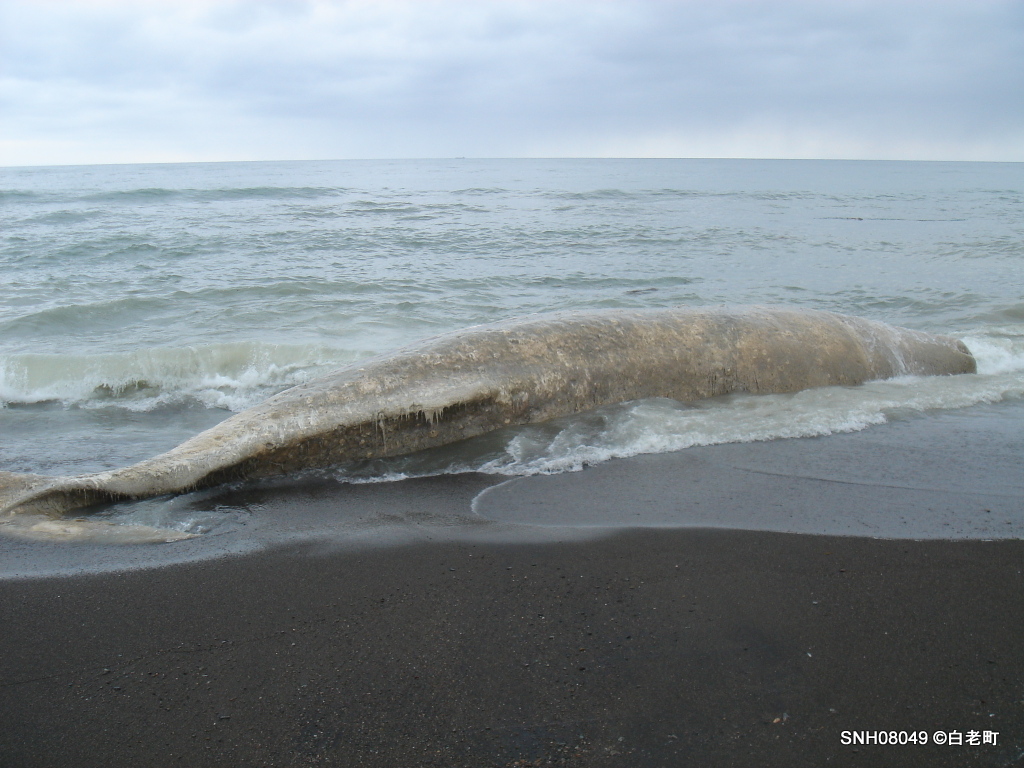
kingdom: Animalia
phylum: Chordata
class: Mammalia
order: Cetacea
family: Physeteridae
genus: Physeter
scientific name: Physeter macrocephalus
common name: Sperm whale
